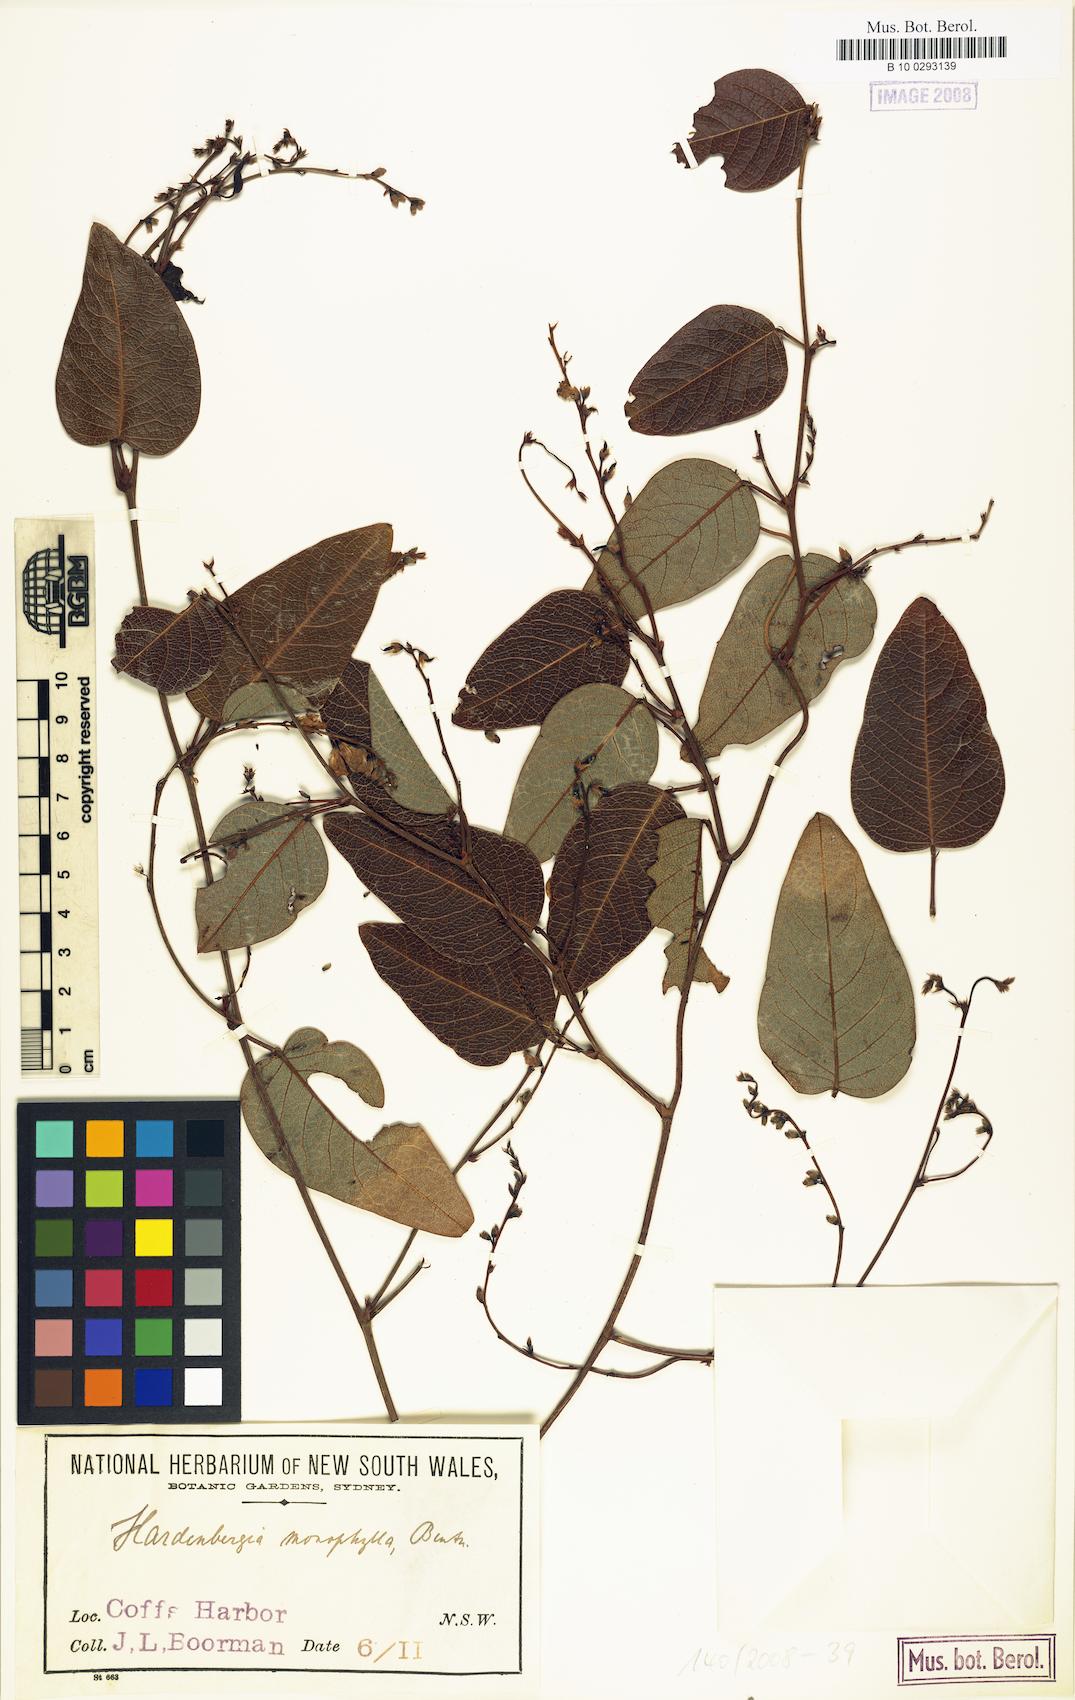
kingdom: Plantae
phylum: Tracheophyta
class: Magnoliopsida
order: Fabales
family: Fabaceae
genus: Hardenbergia
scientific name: Hardenbergia violacea
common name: Coral-pea
